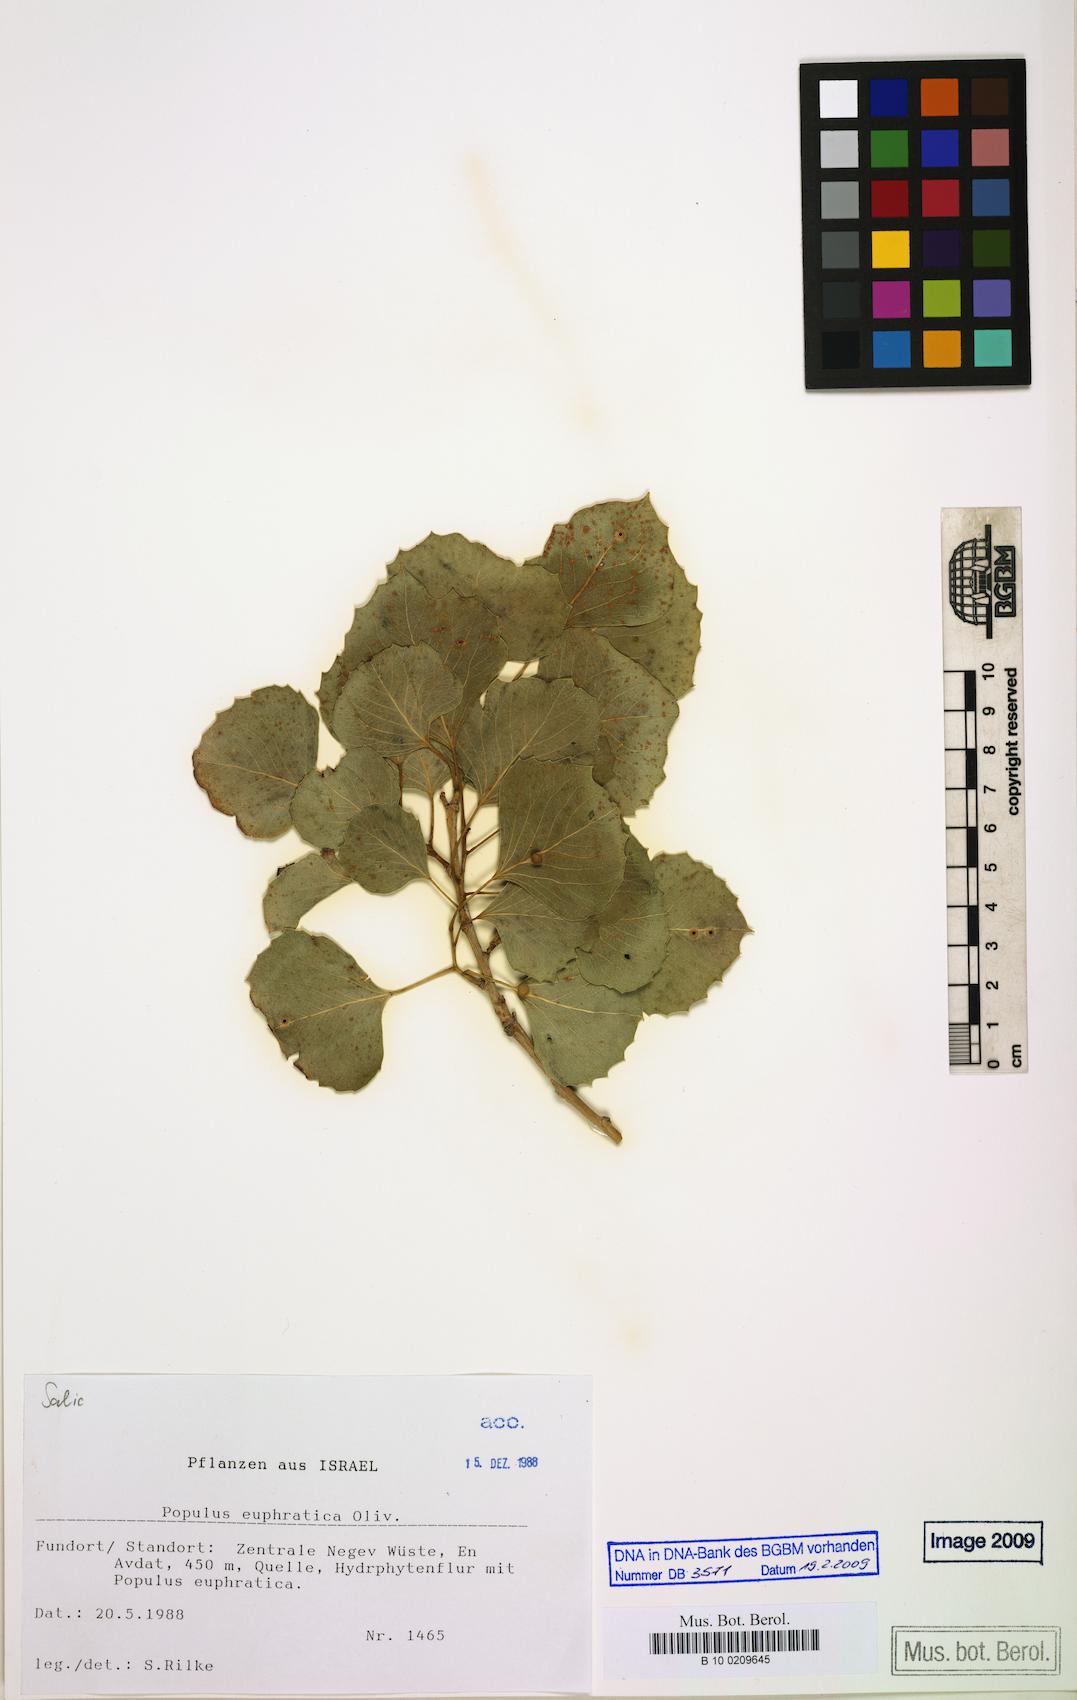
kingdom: Plantae
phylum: Tracheophyta
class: Magnoliopsida
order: Malpighiales
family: Salicaceae
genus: Populus
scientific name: Populus euphratica
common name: Euphrates poplar
